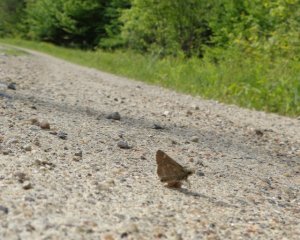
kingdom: Animalia
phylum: Arthropoda
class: Insecta
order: Lepidoptera
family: Hesperiidae
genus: Mastor
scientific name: Mastor hegon
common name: Pepper and Salt Skipper
